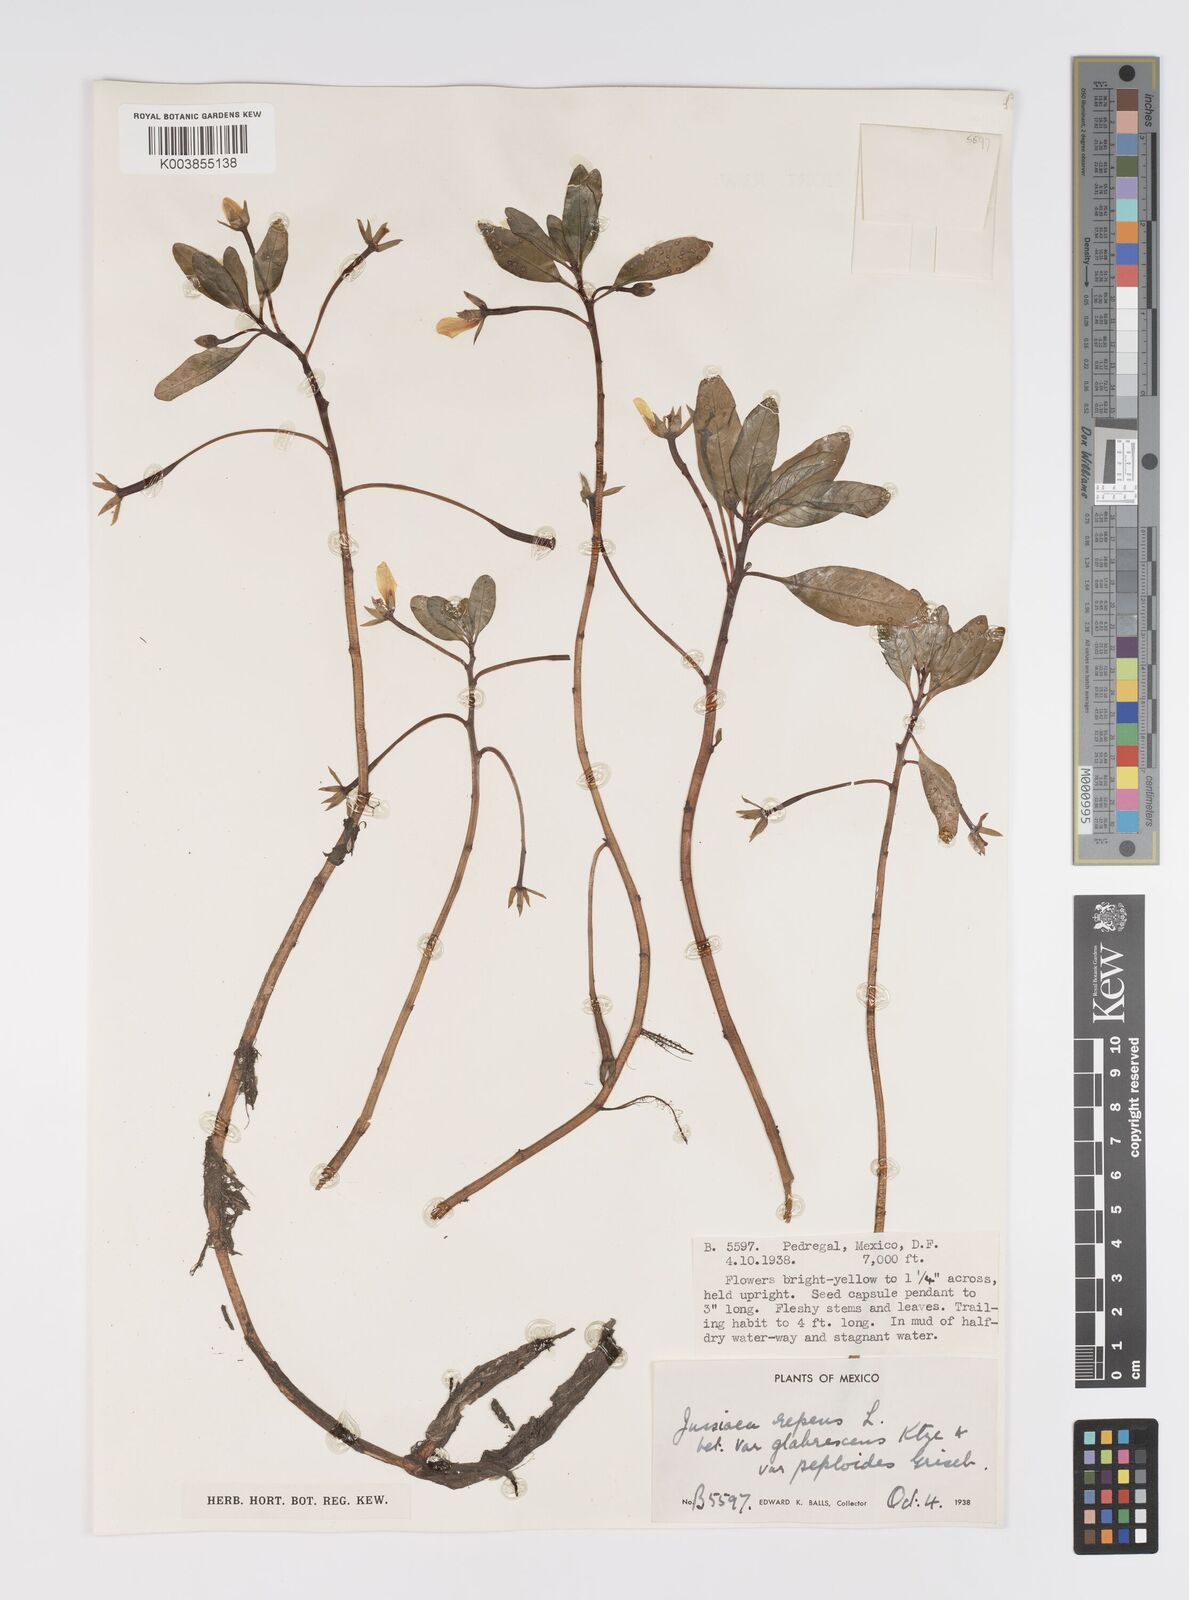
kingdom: Plantae
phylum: Tracheophyta
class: Magnoliopsida
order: Myrtales
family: Onagraceae
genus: Ludwigia
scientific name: Ludwigia adscendens
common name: Creeping water primrose
